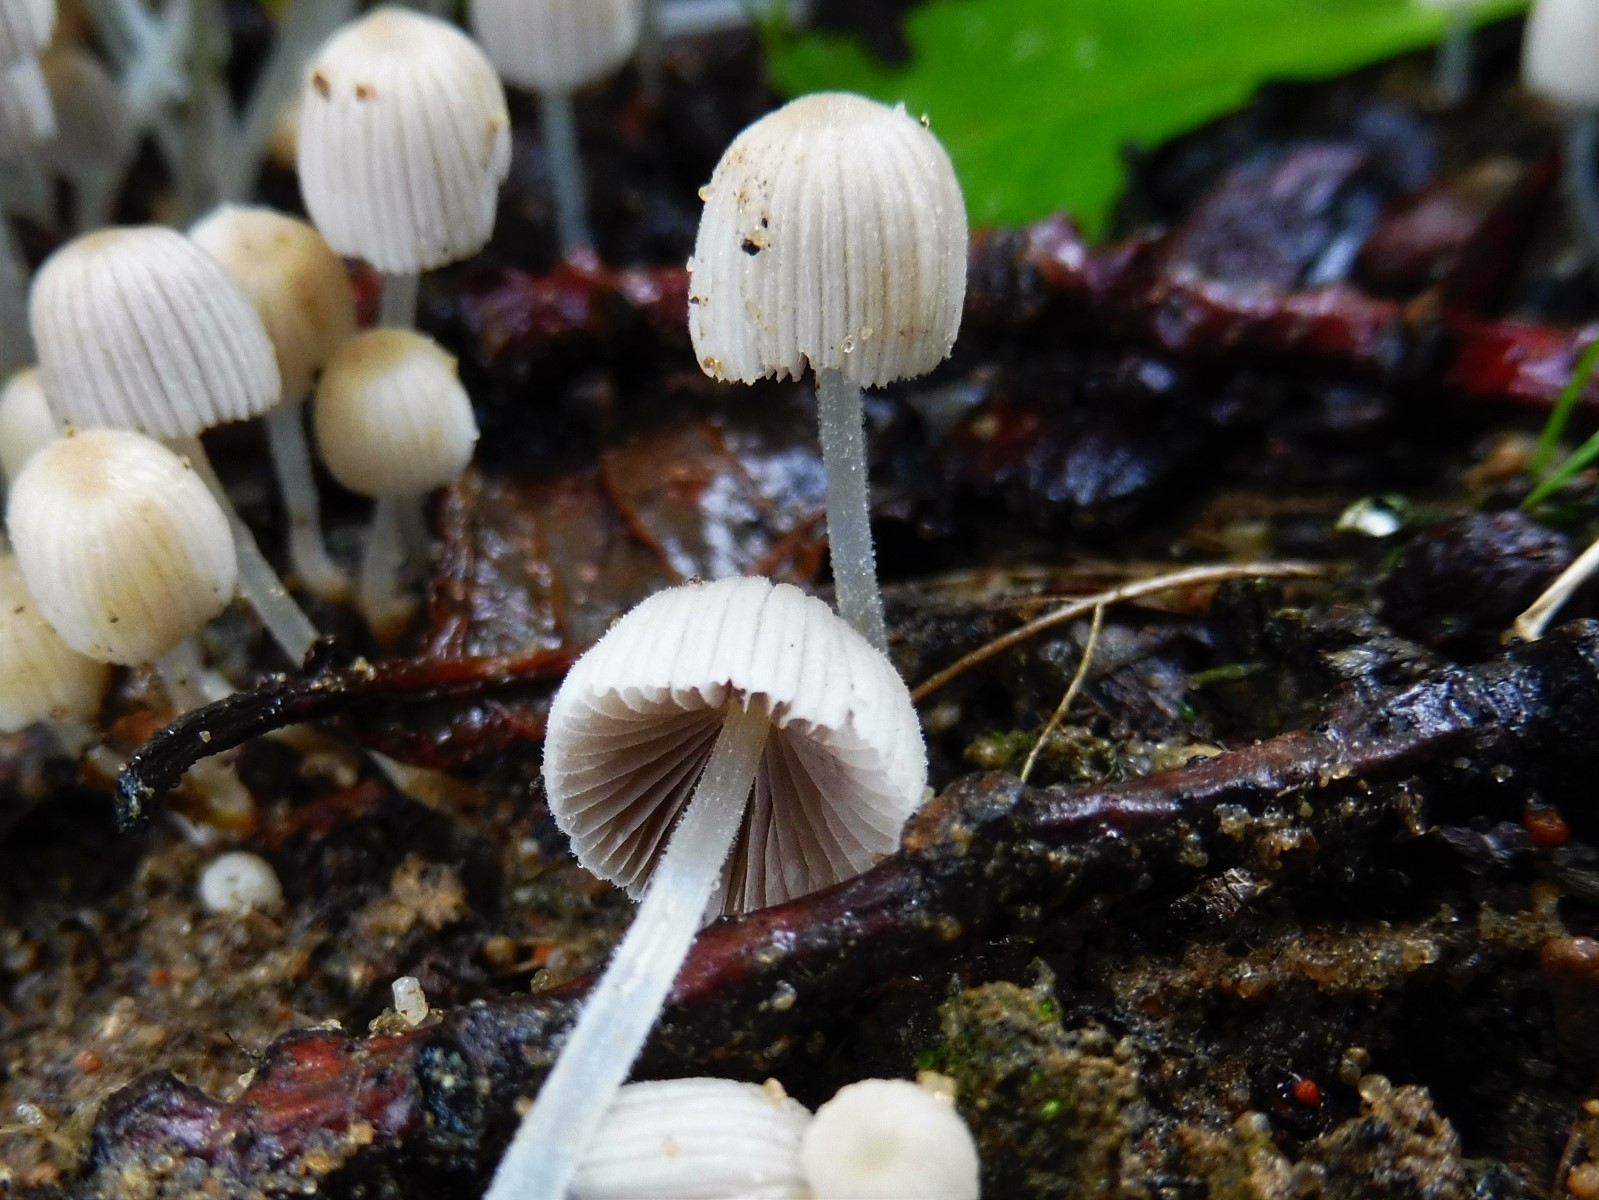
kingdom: Fungi
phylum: Basidiomycota
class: Agaricomycetes
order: Agaricales
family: Psathyrellaceae
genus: Coprinellus
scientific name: Coprinellus disseminatus
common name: bredsået blækhat
